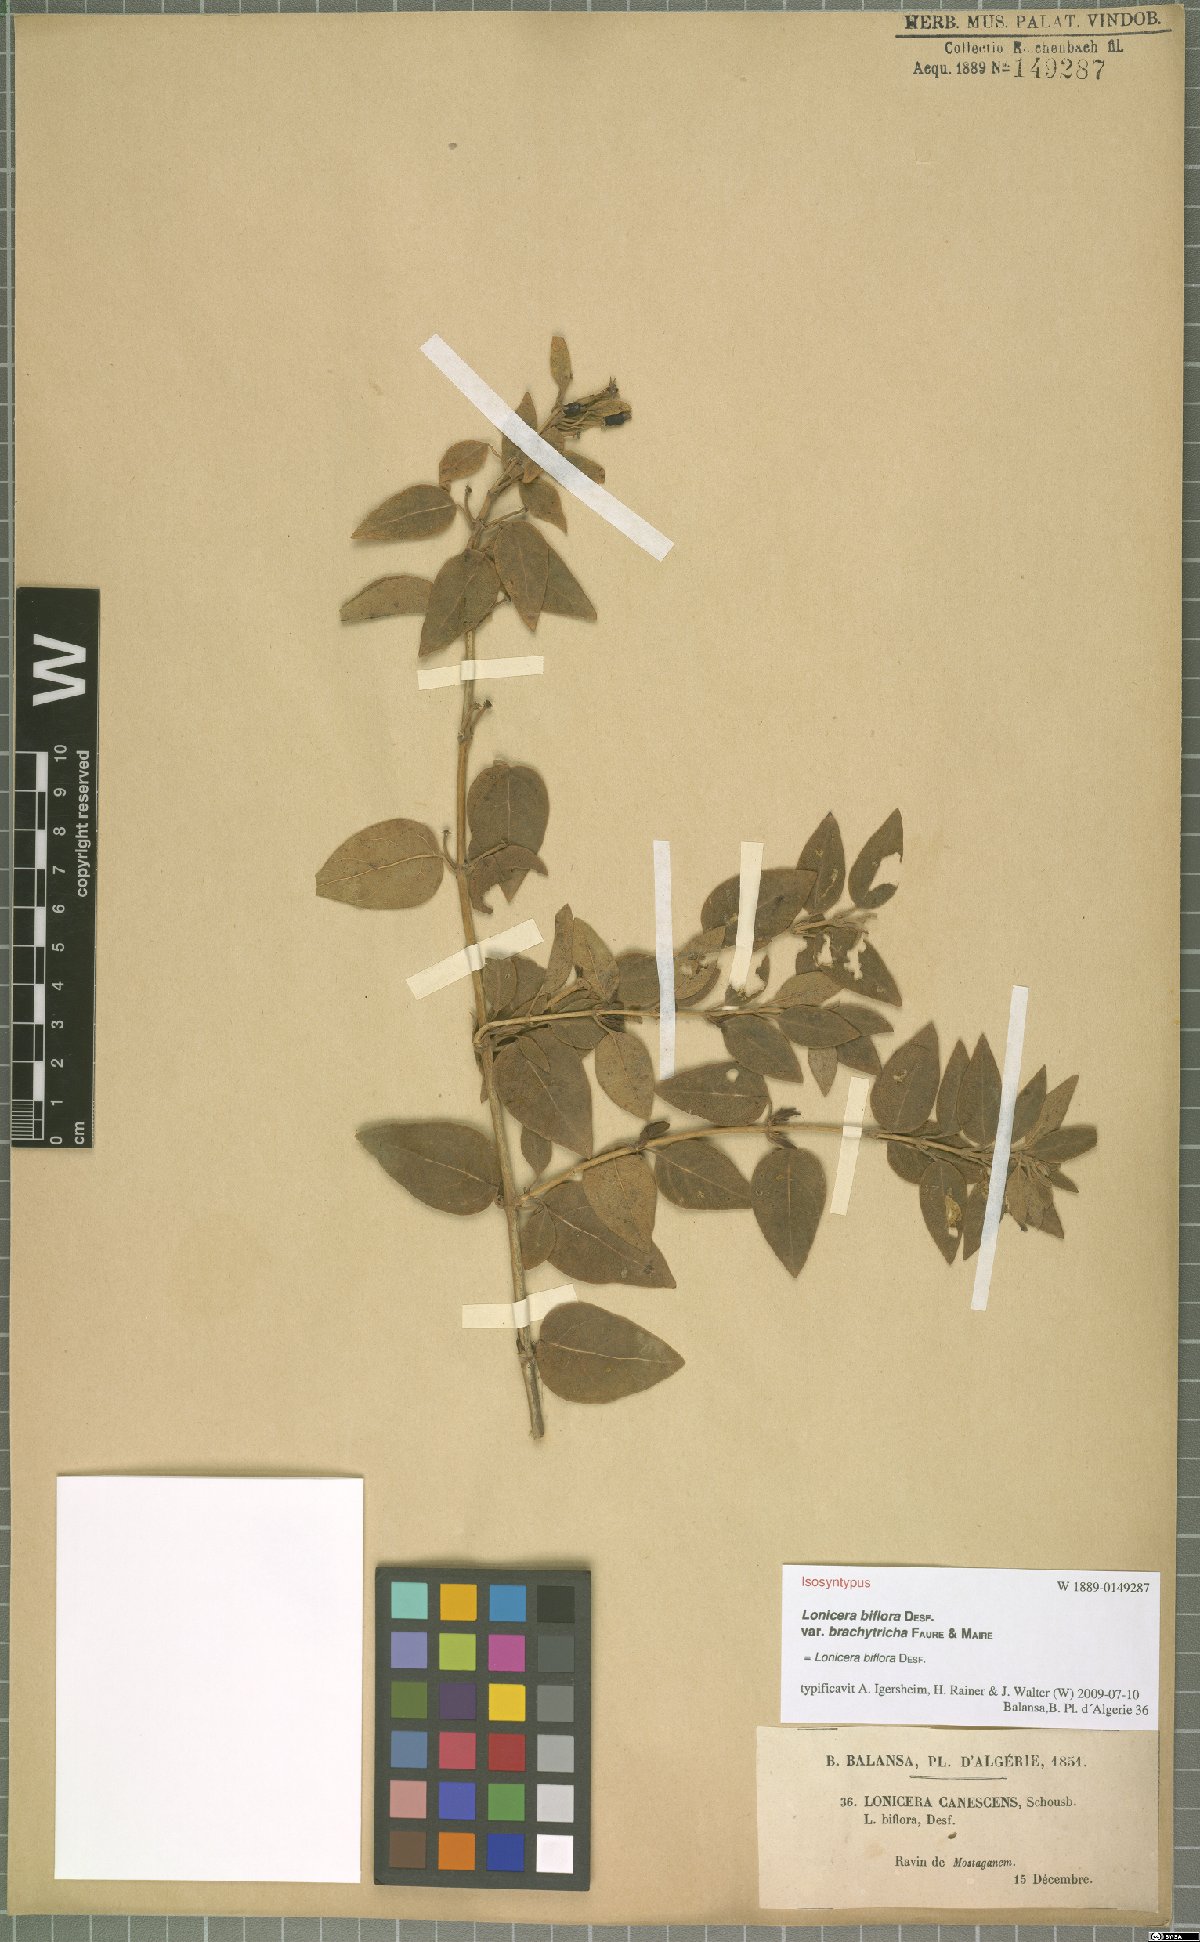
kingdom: Plantae
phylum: Tracheophyta
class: Magnoliopsida
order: Dipsacales
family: Caprifoliaceae
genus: Lonicera
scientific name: Lonicera biflora
